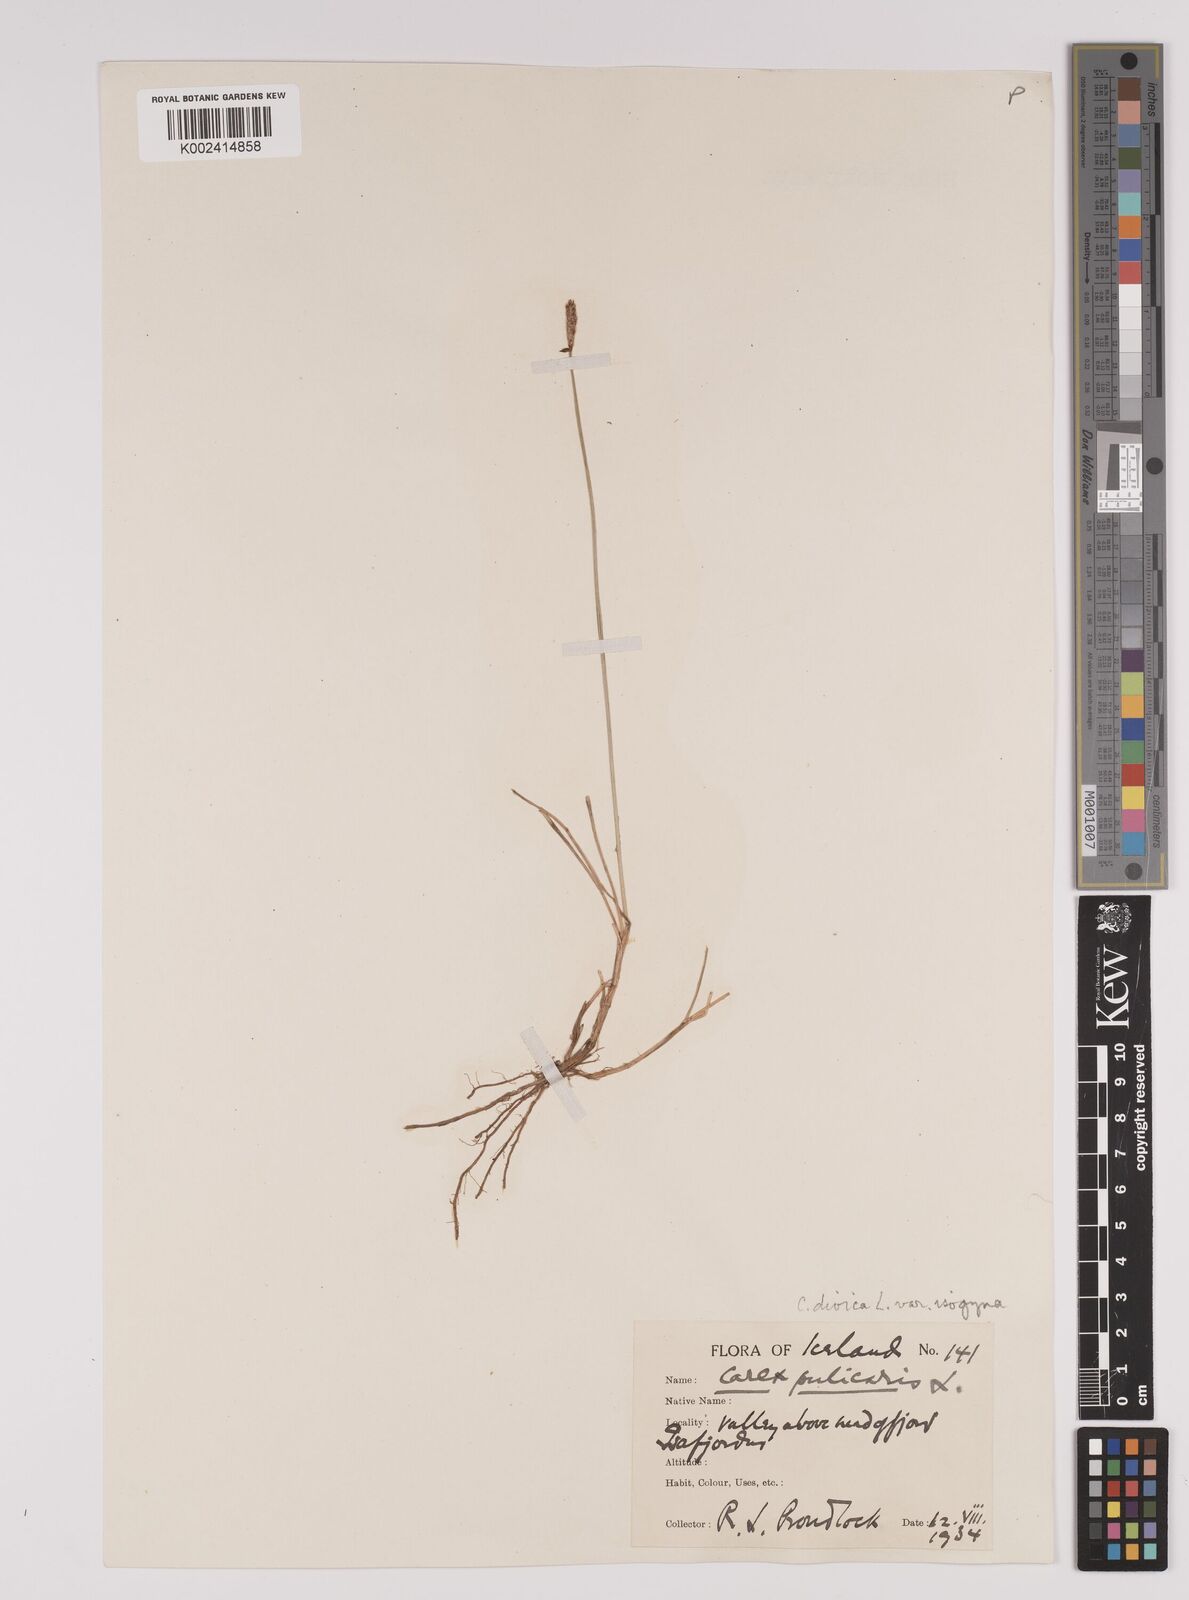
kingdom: Plantae
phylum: Tracheophyta
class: Liliopsida
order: Poales
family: Cyperaceae
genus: Carex
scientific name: Carex dioica
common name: Dioecious sedge
